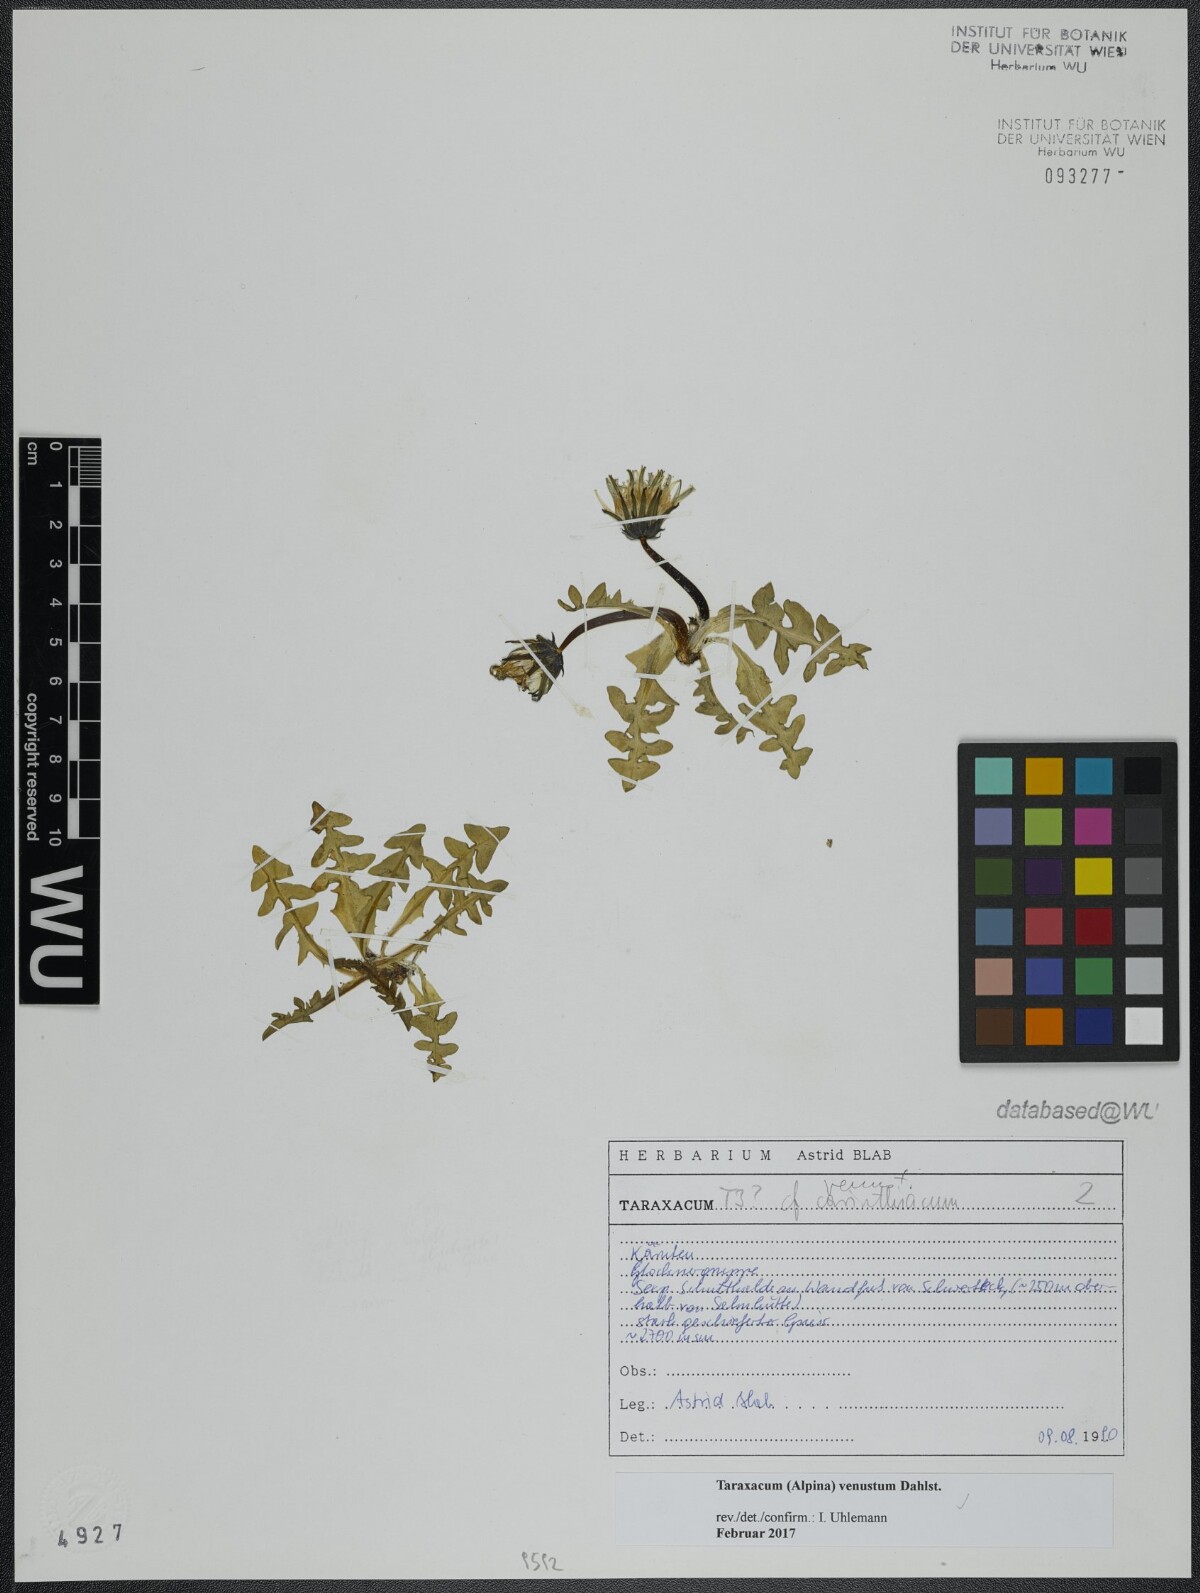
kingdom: Plantae
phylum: Tracheophyta
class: Magnoliopsida
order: Asterales
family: Asteraceae
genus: Taraxacum
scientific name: Taraxacum venustum
